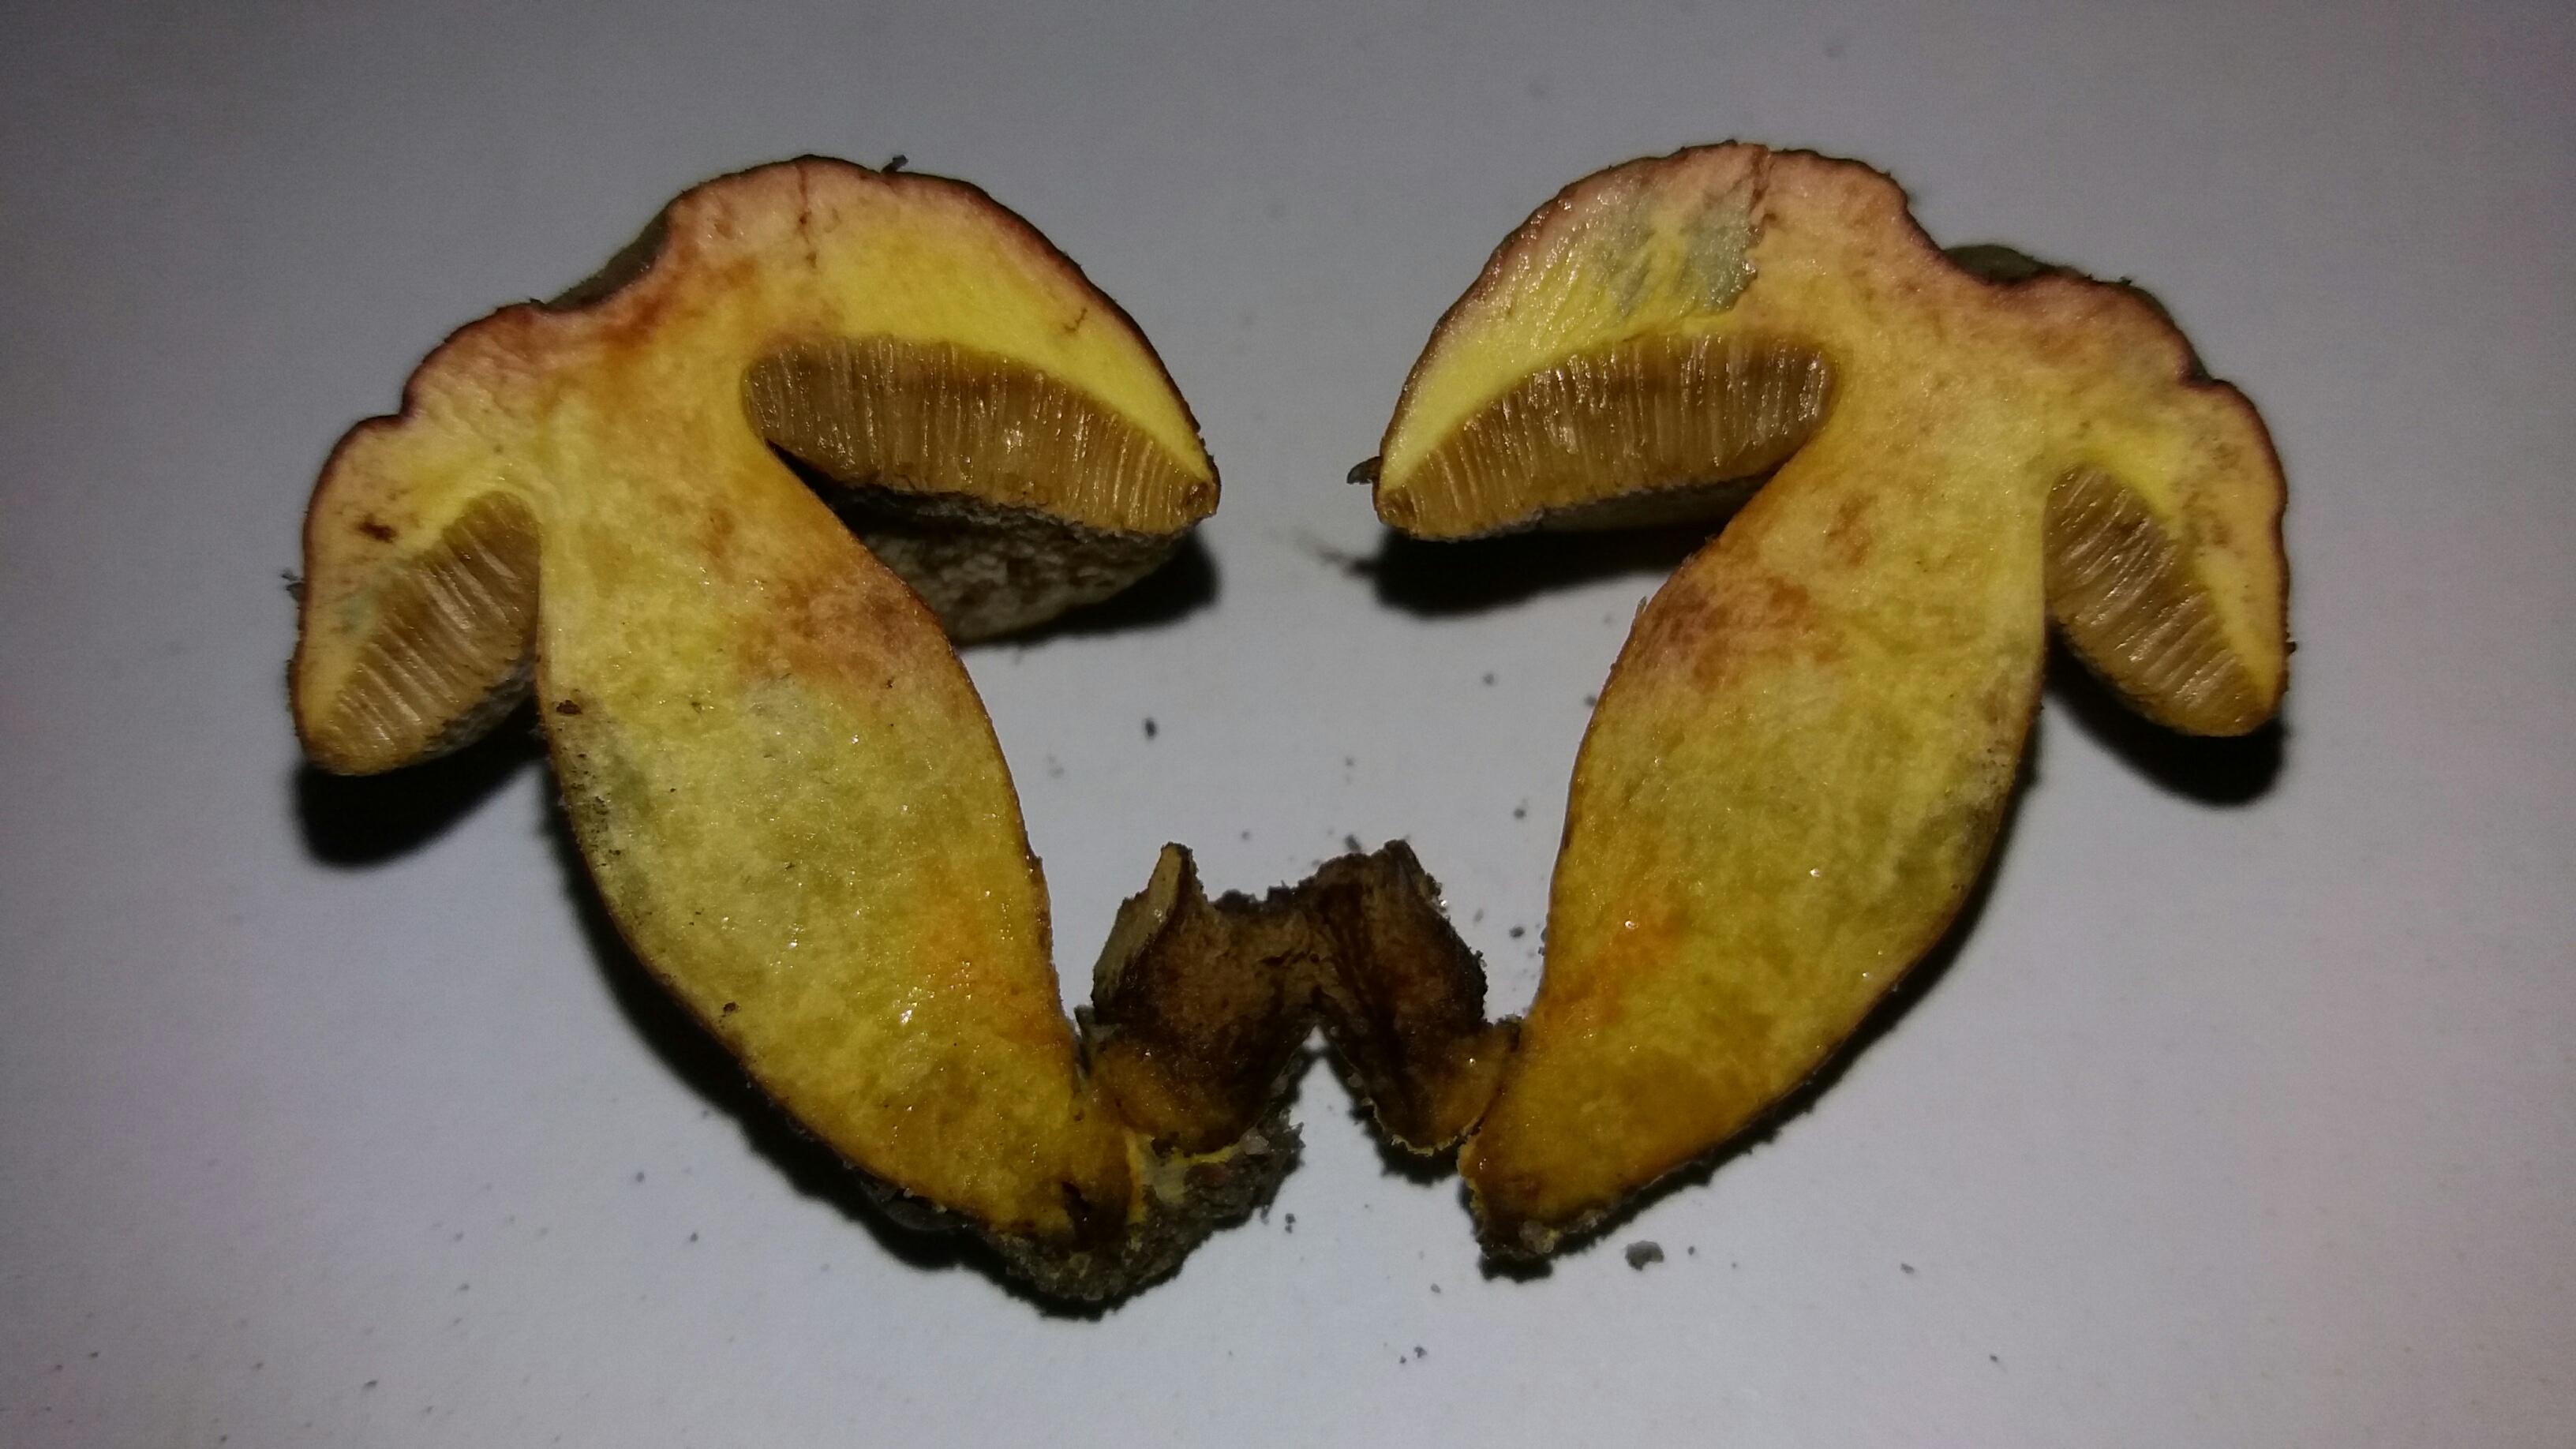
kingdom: Fungi
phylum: Basidiomycota
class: Agaricomycetes
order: Boletales
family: Boletaceae
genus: Hortiboletus
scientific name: Hortiboletus bubalinus
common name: aurora-rørhat
